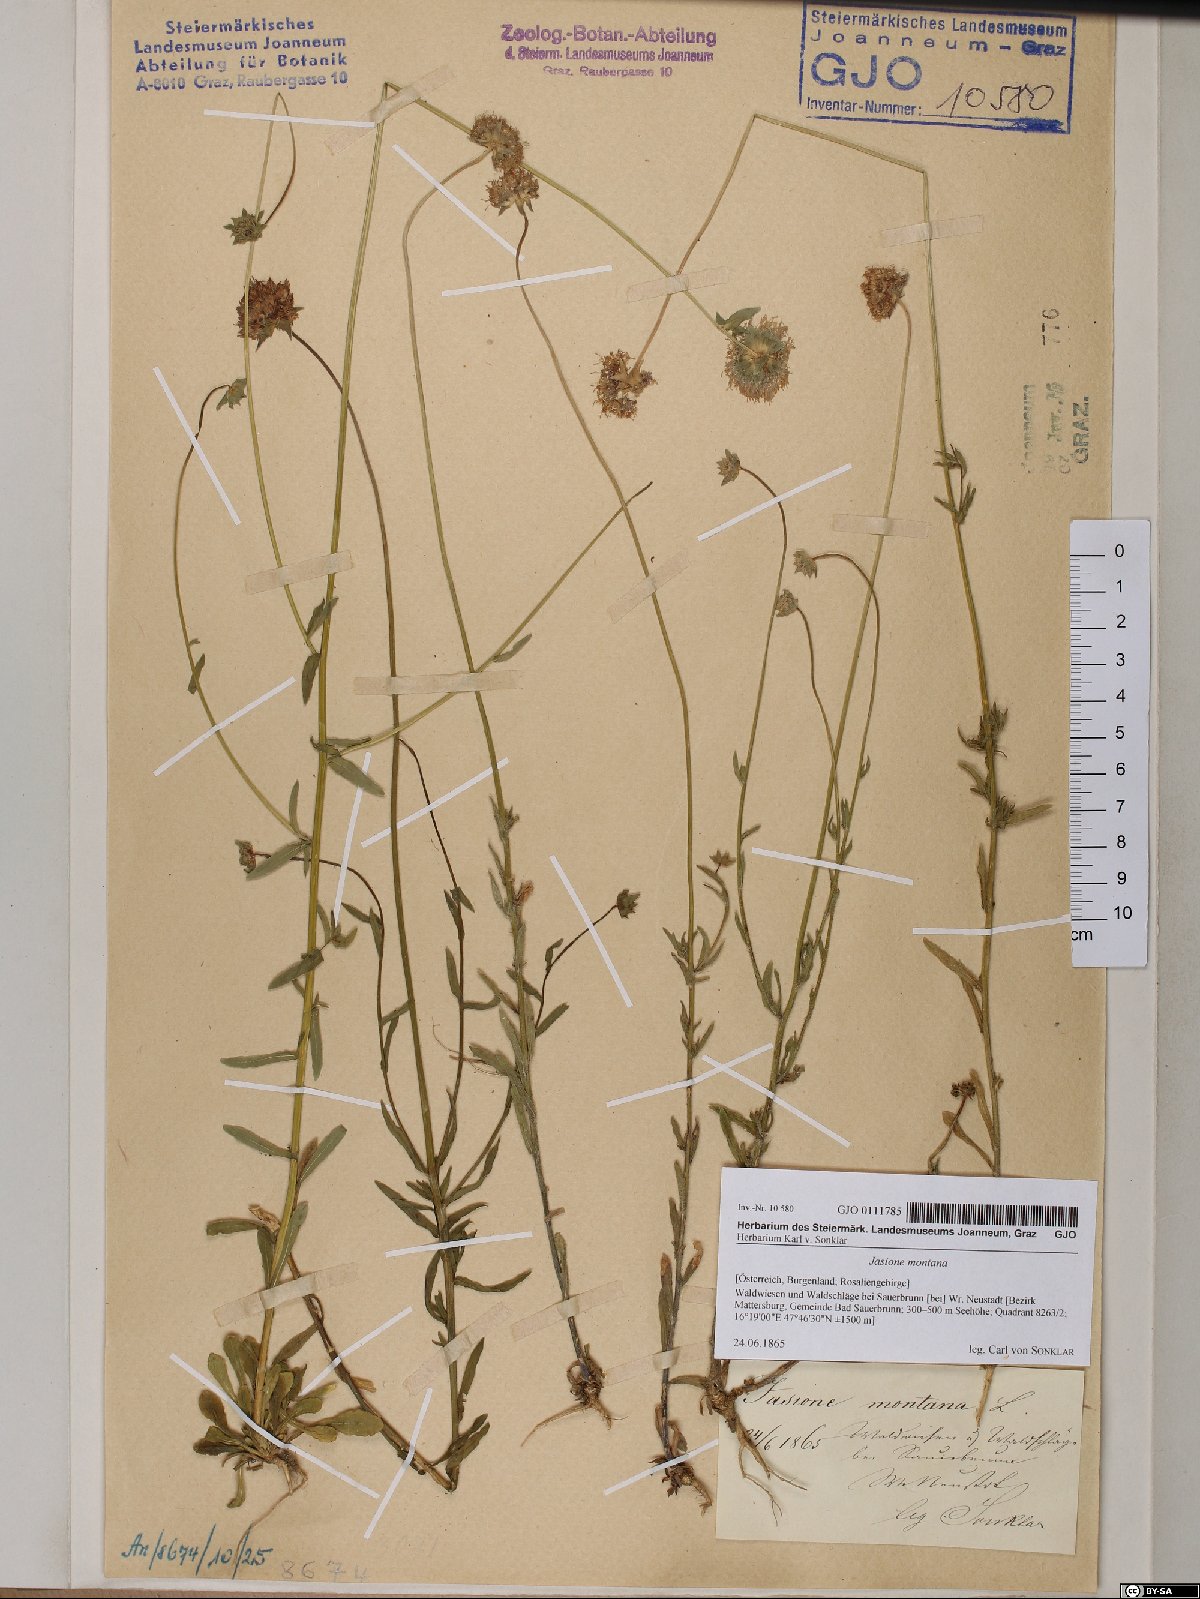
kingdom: Plantae
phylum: Tracheophyta
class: Magnoliopsida
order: Asterales
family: Campanulaceae
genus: Jasione
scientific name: Jasione montana
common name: Sheep's-bit
